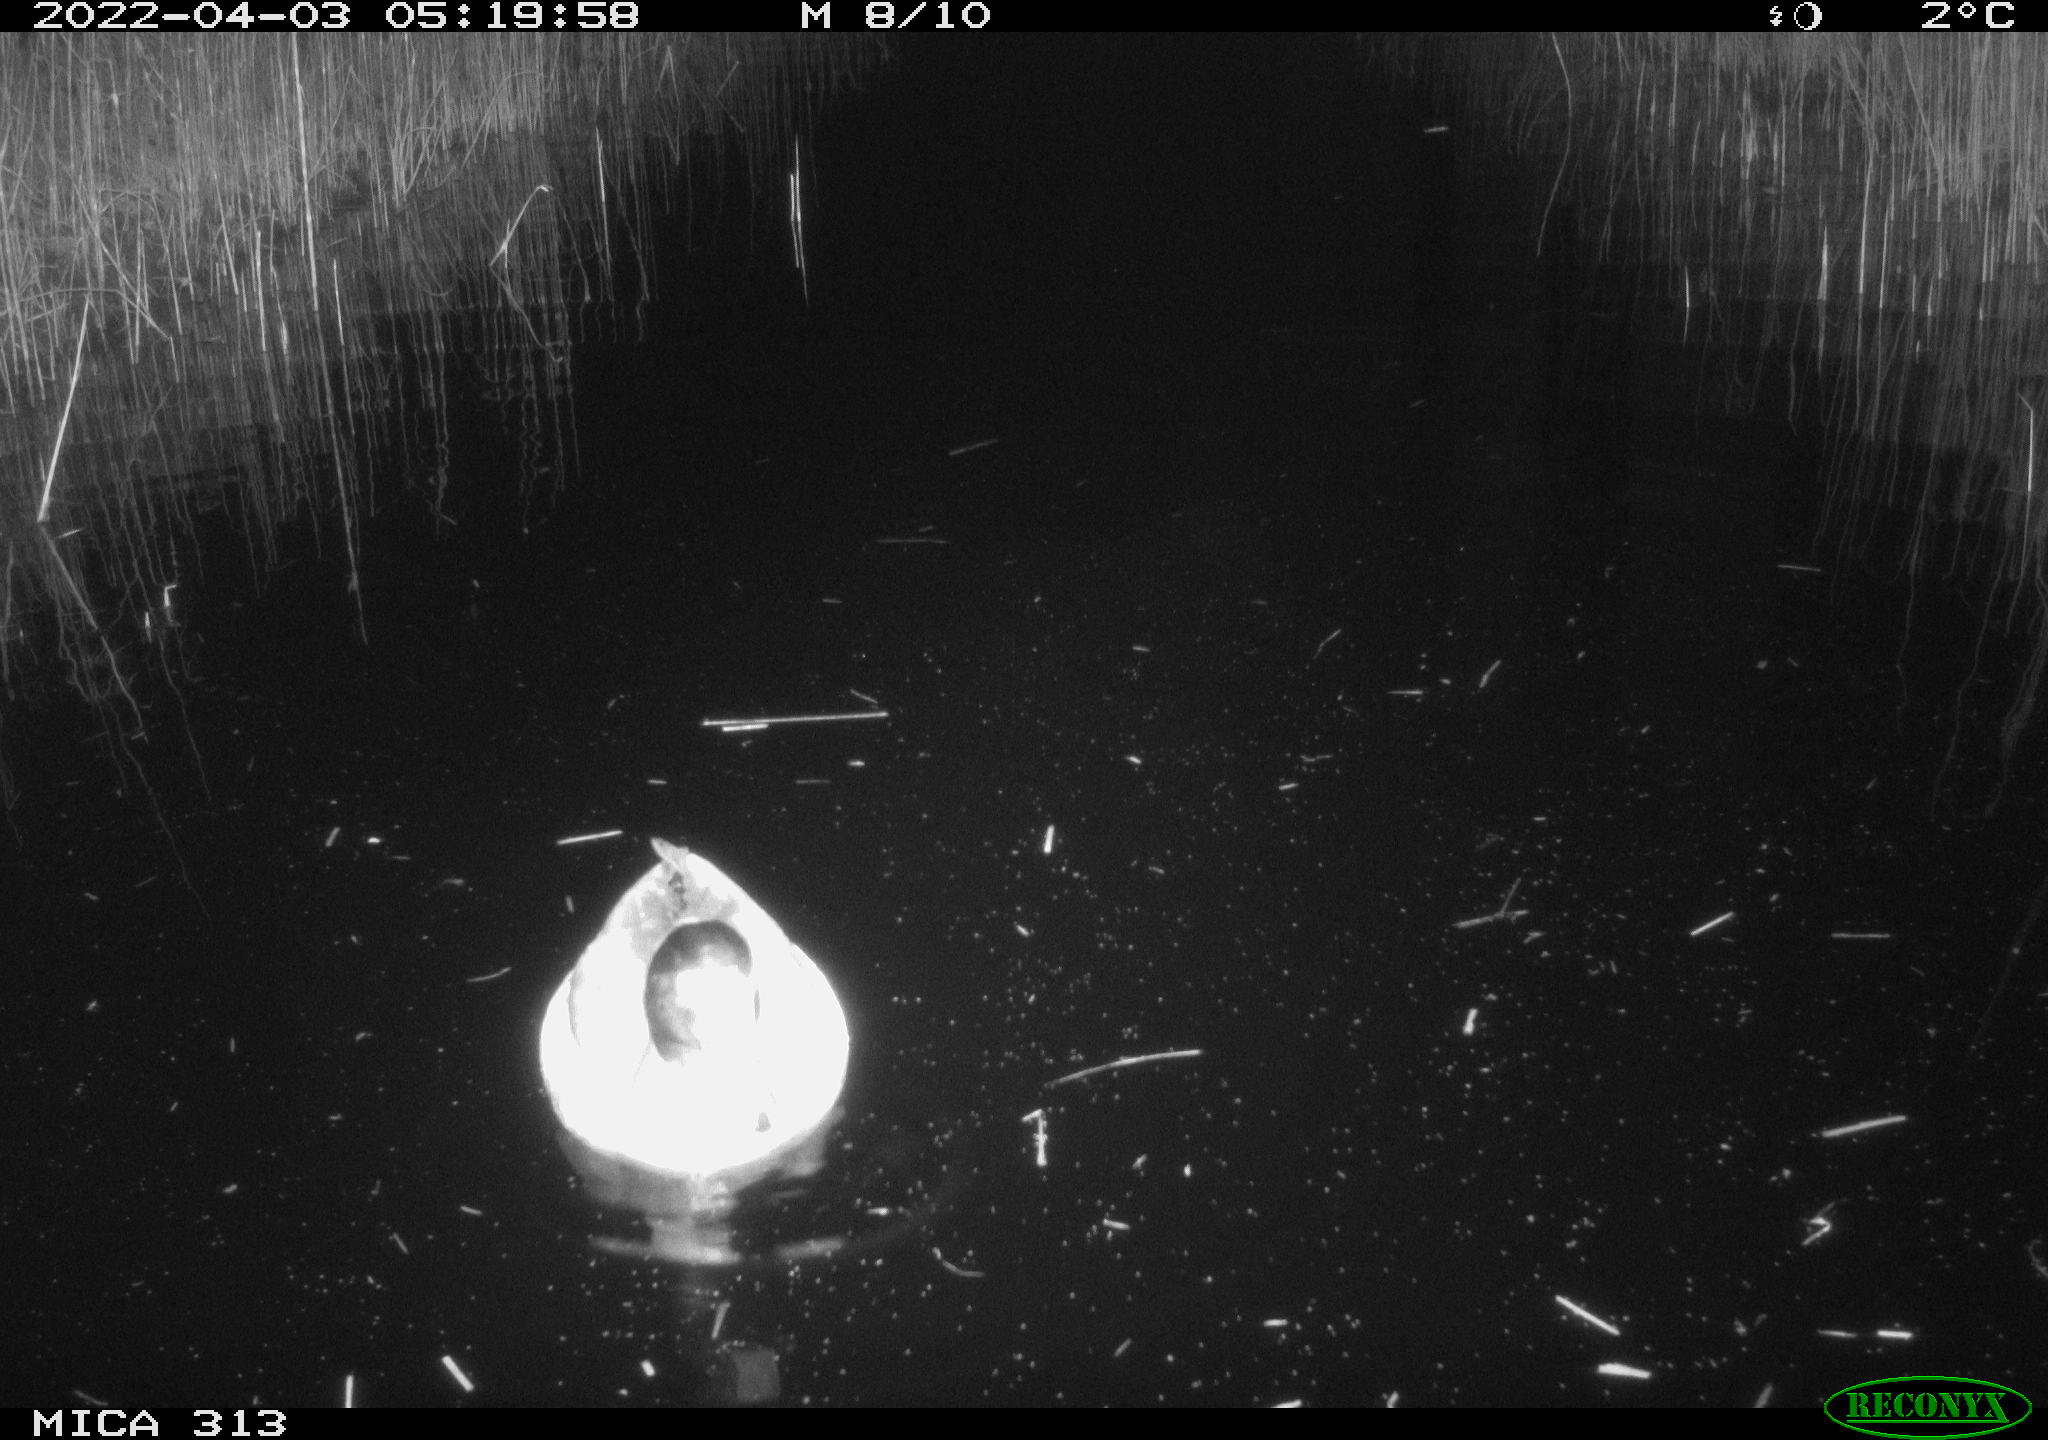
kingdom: Animalia
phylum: Chordata
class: Aves
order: Anseriformes
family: Anatidae
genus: Anas
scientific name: Anas platyrhynchos
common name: Mallard
